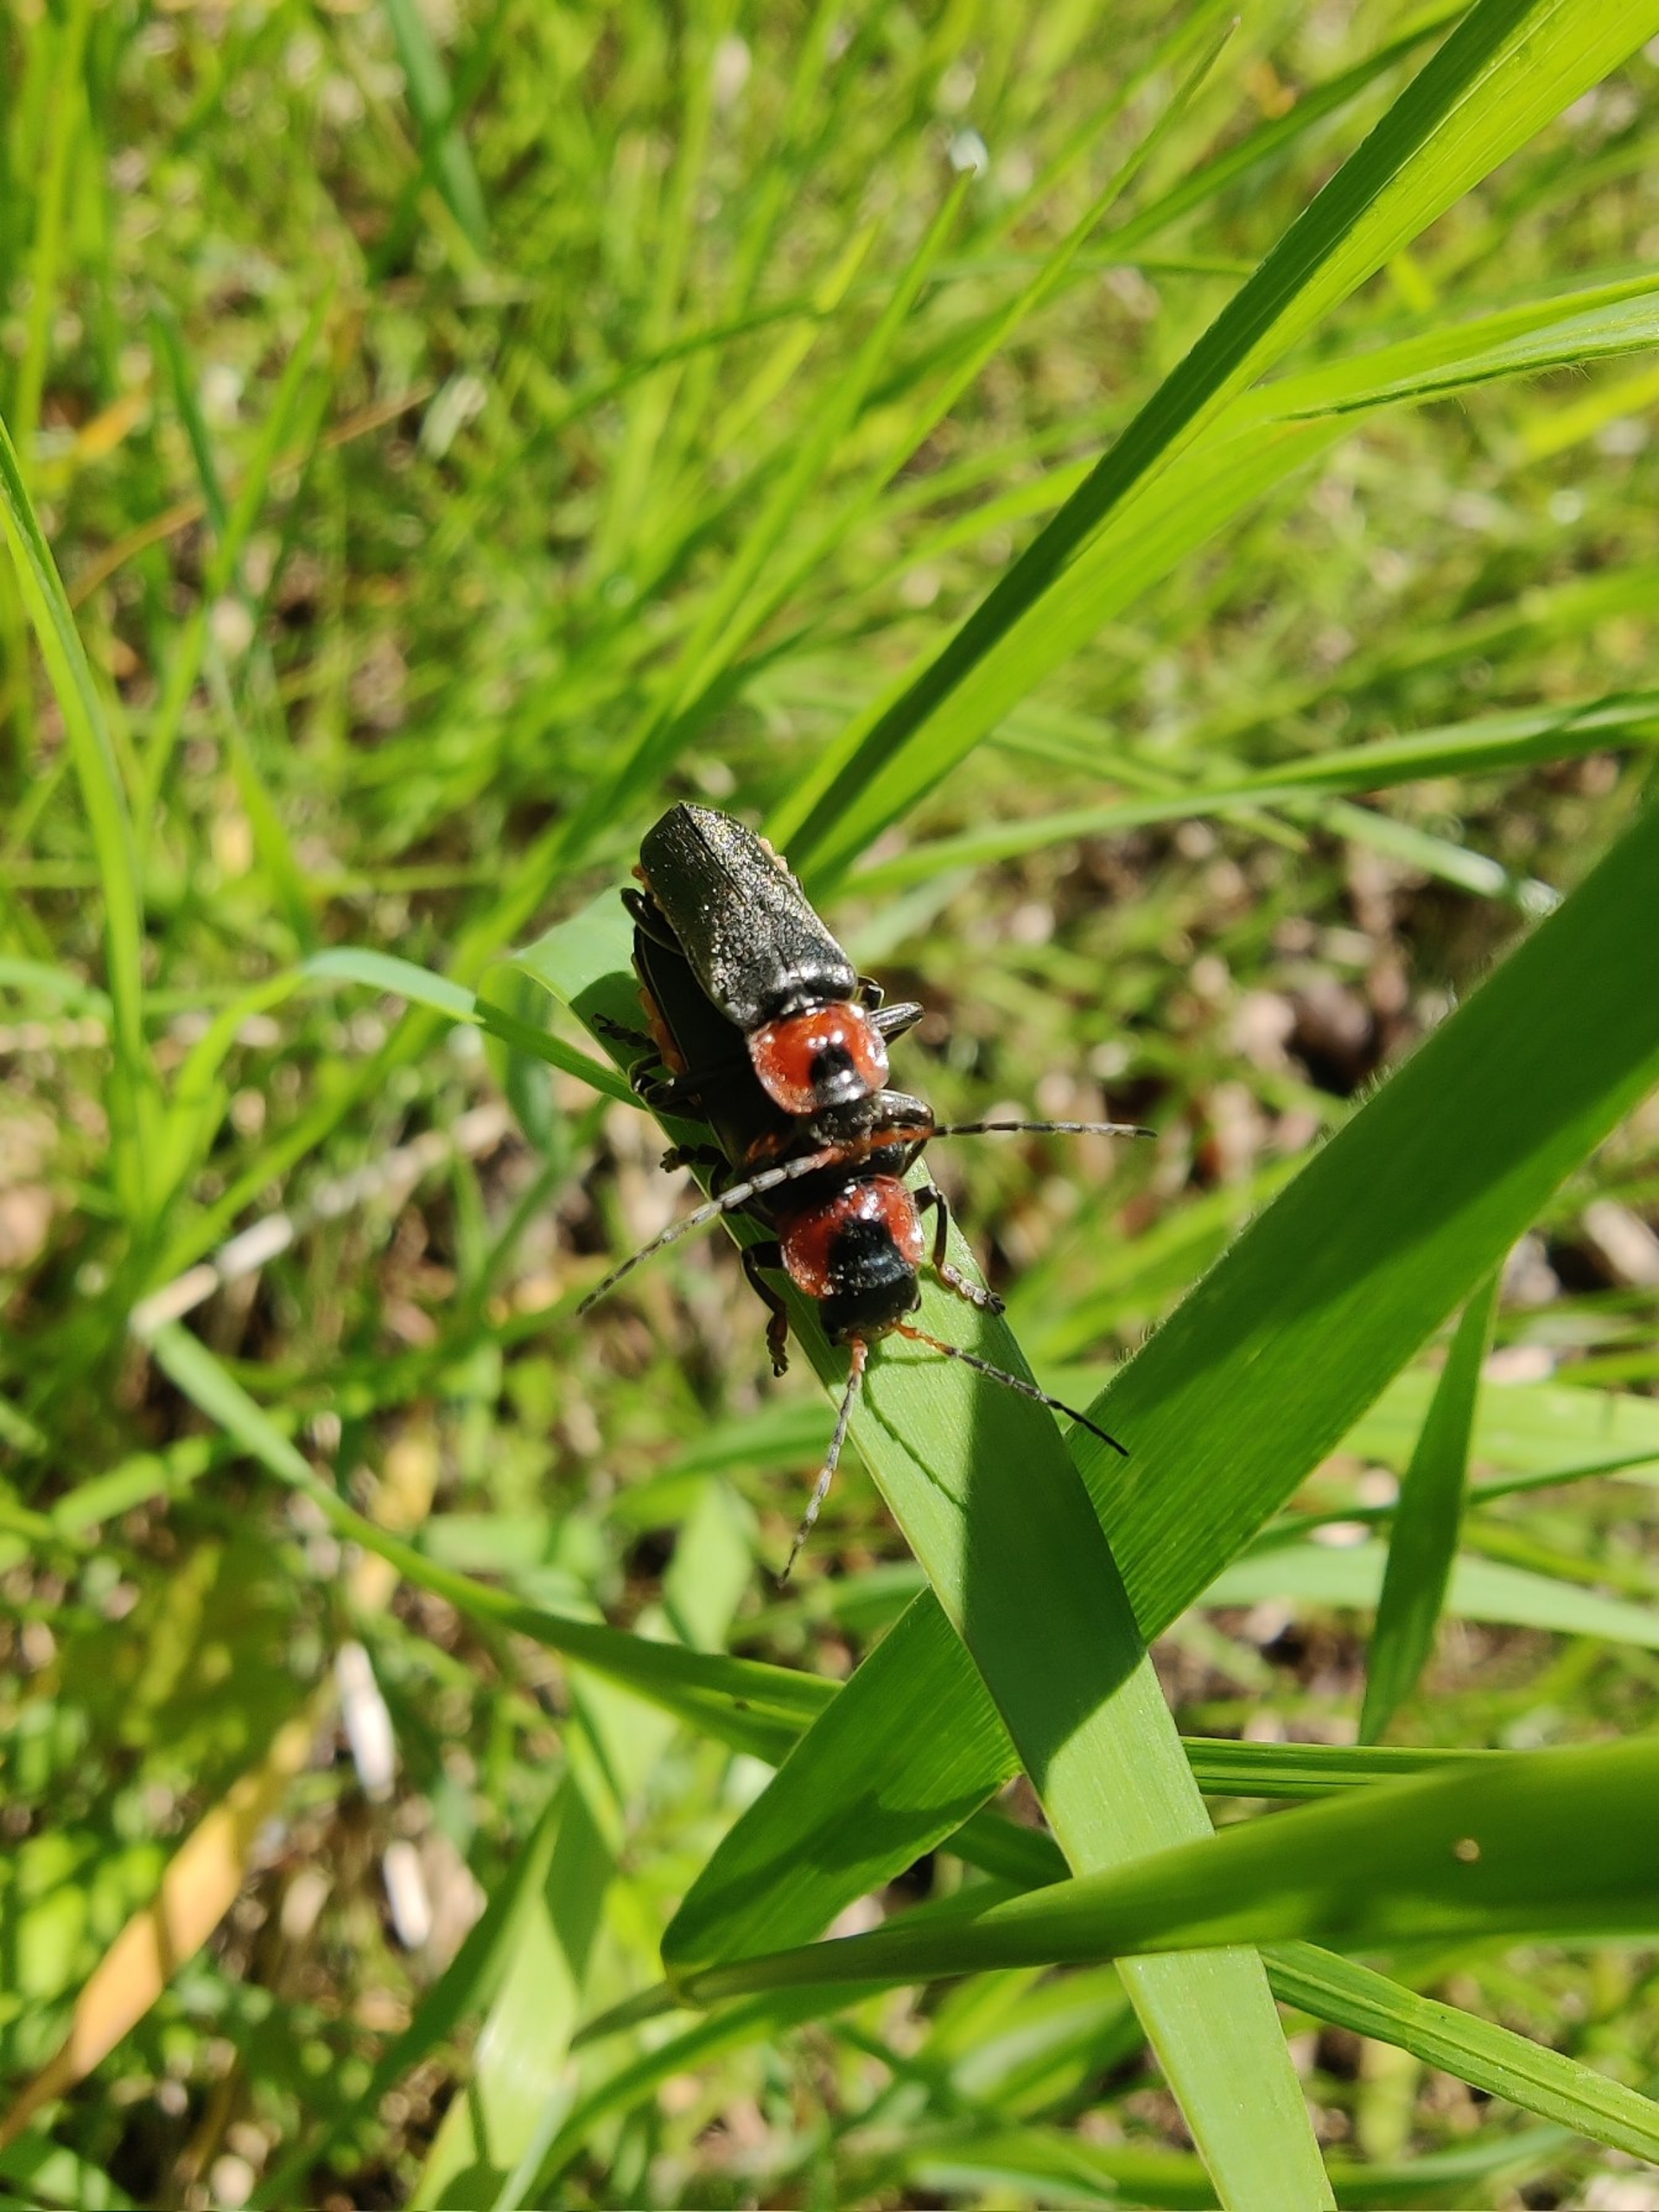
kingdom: Animalia
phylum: Arthropoda
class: Insecta
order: Coleoptera
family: Cantharidae
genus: Cantharis
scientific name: Cantharis fusca
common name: Stor blødvinge
